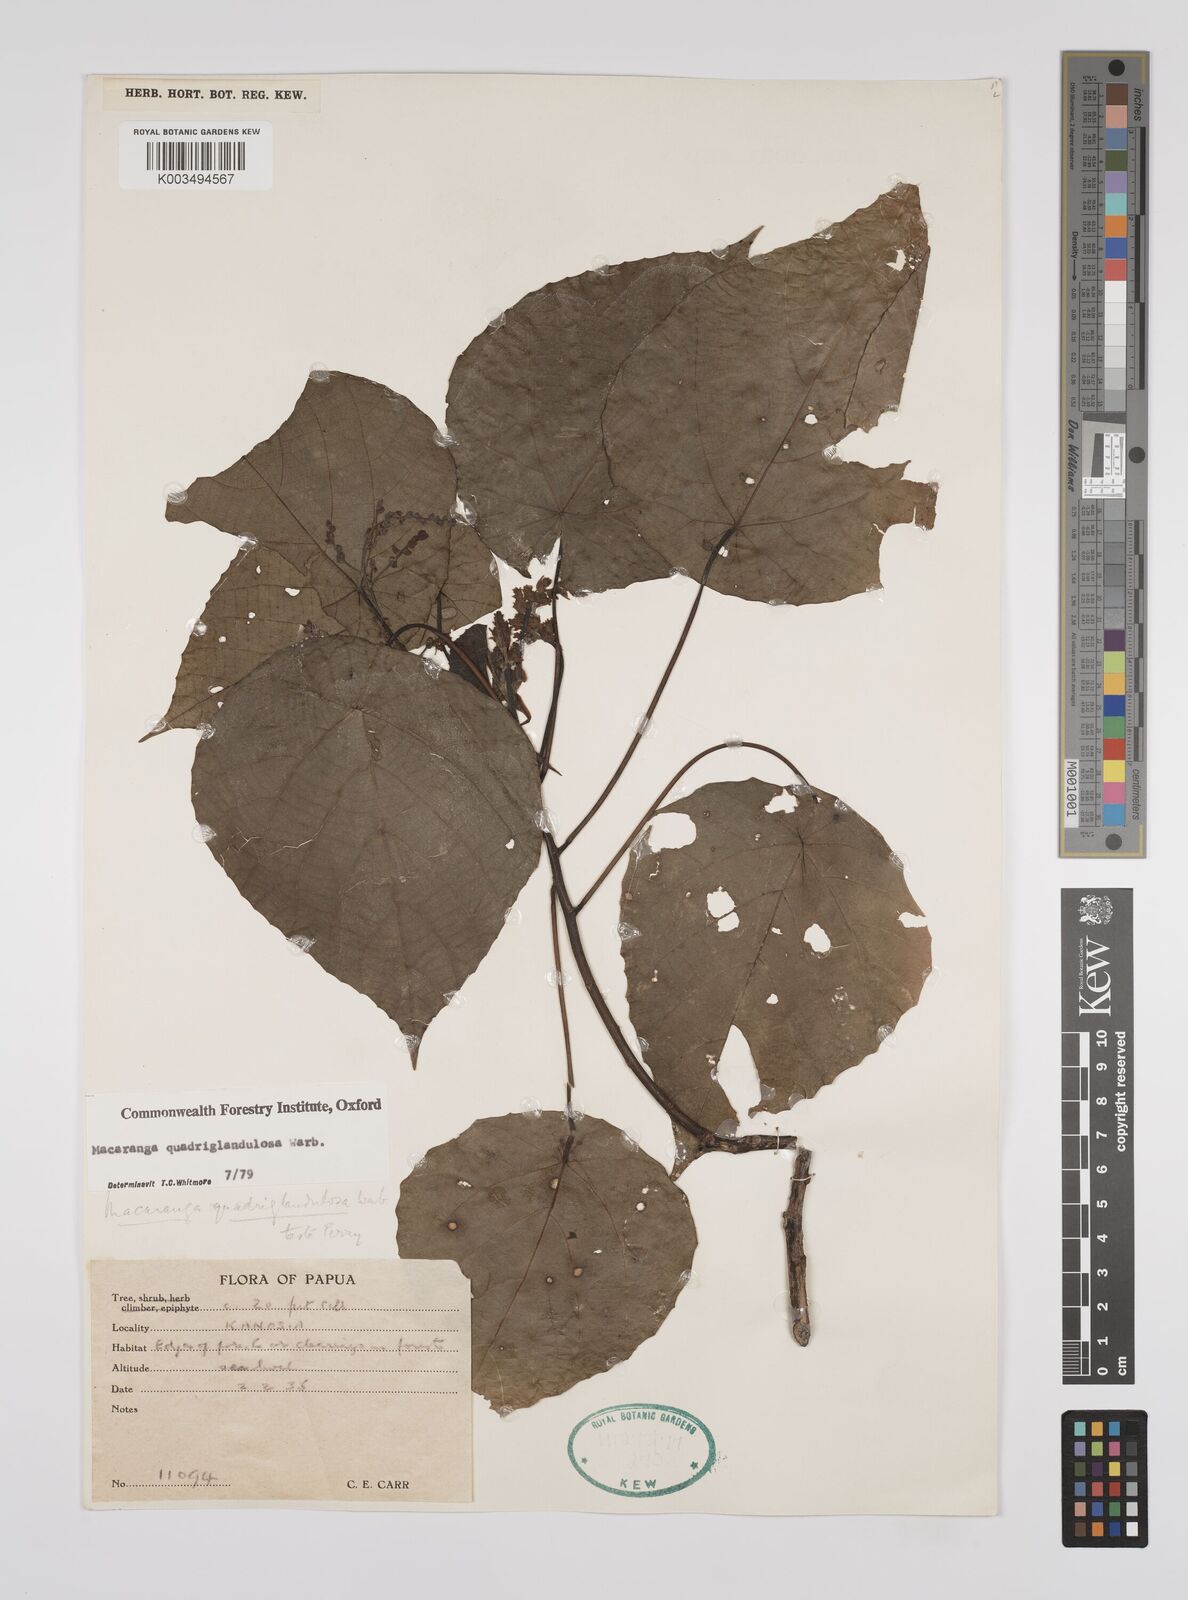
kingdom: Plantae
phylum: Tracheophyta
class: Magnoliopsida
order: Malpighiales
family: Euphorbiaceae
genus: Macaranga
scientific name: Macaranga quadriglandulosa
